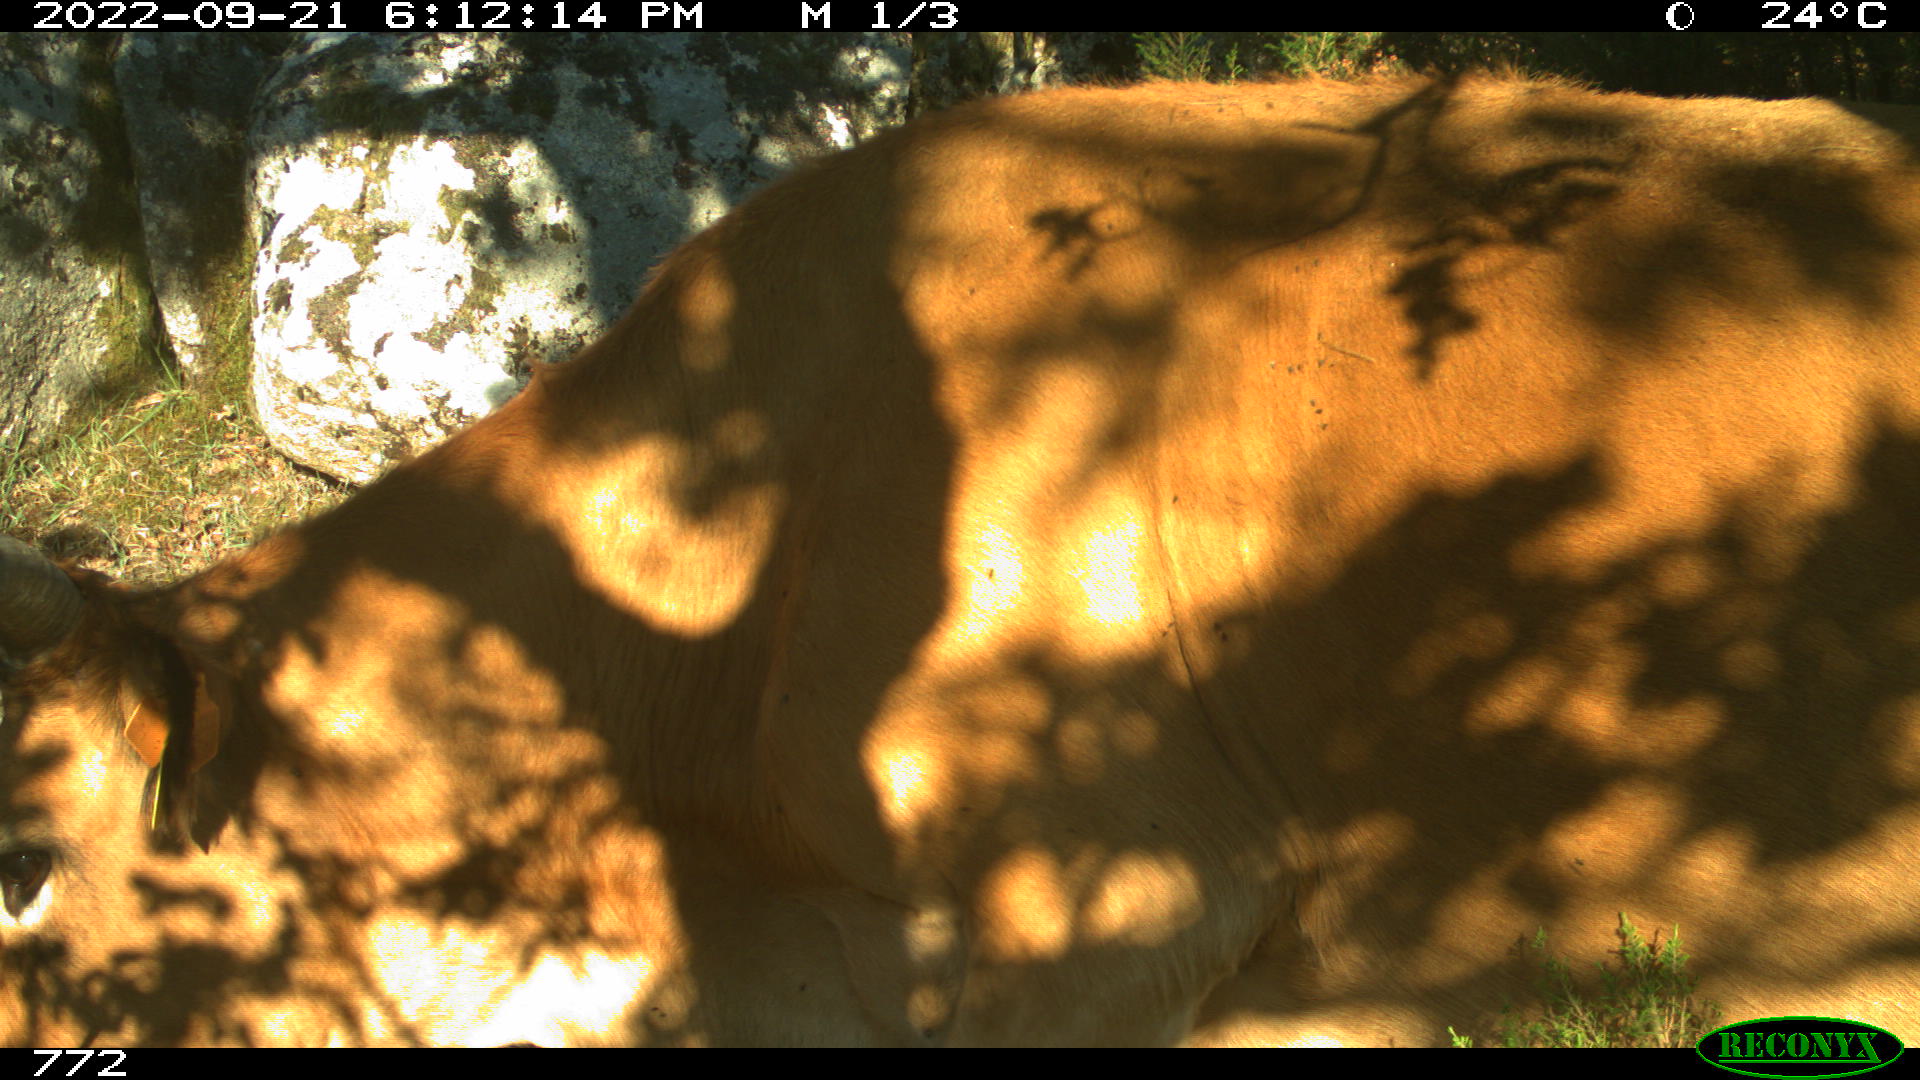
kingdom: Animalia
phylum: Chordata
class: Mammalia
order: Artiodactyla
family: Bovidae
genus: Bos
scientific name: Bos taurus
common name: Domesticated cattle
